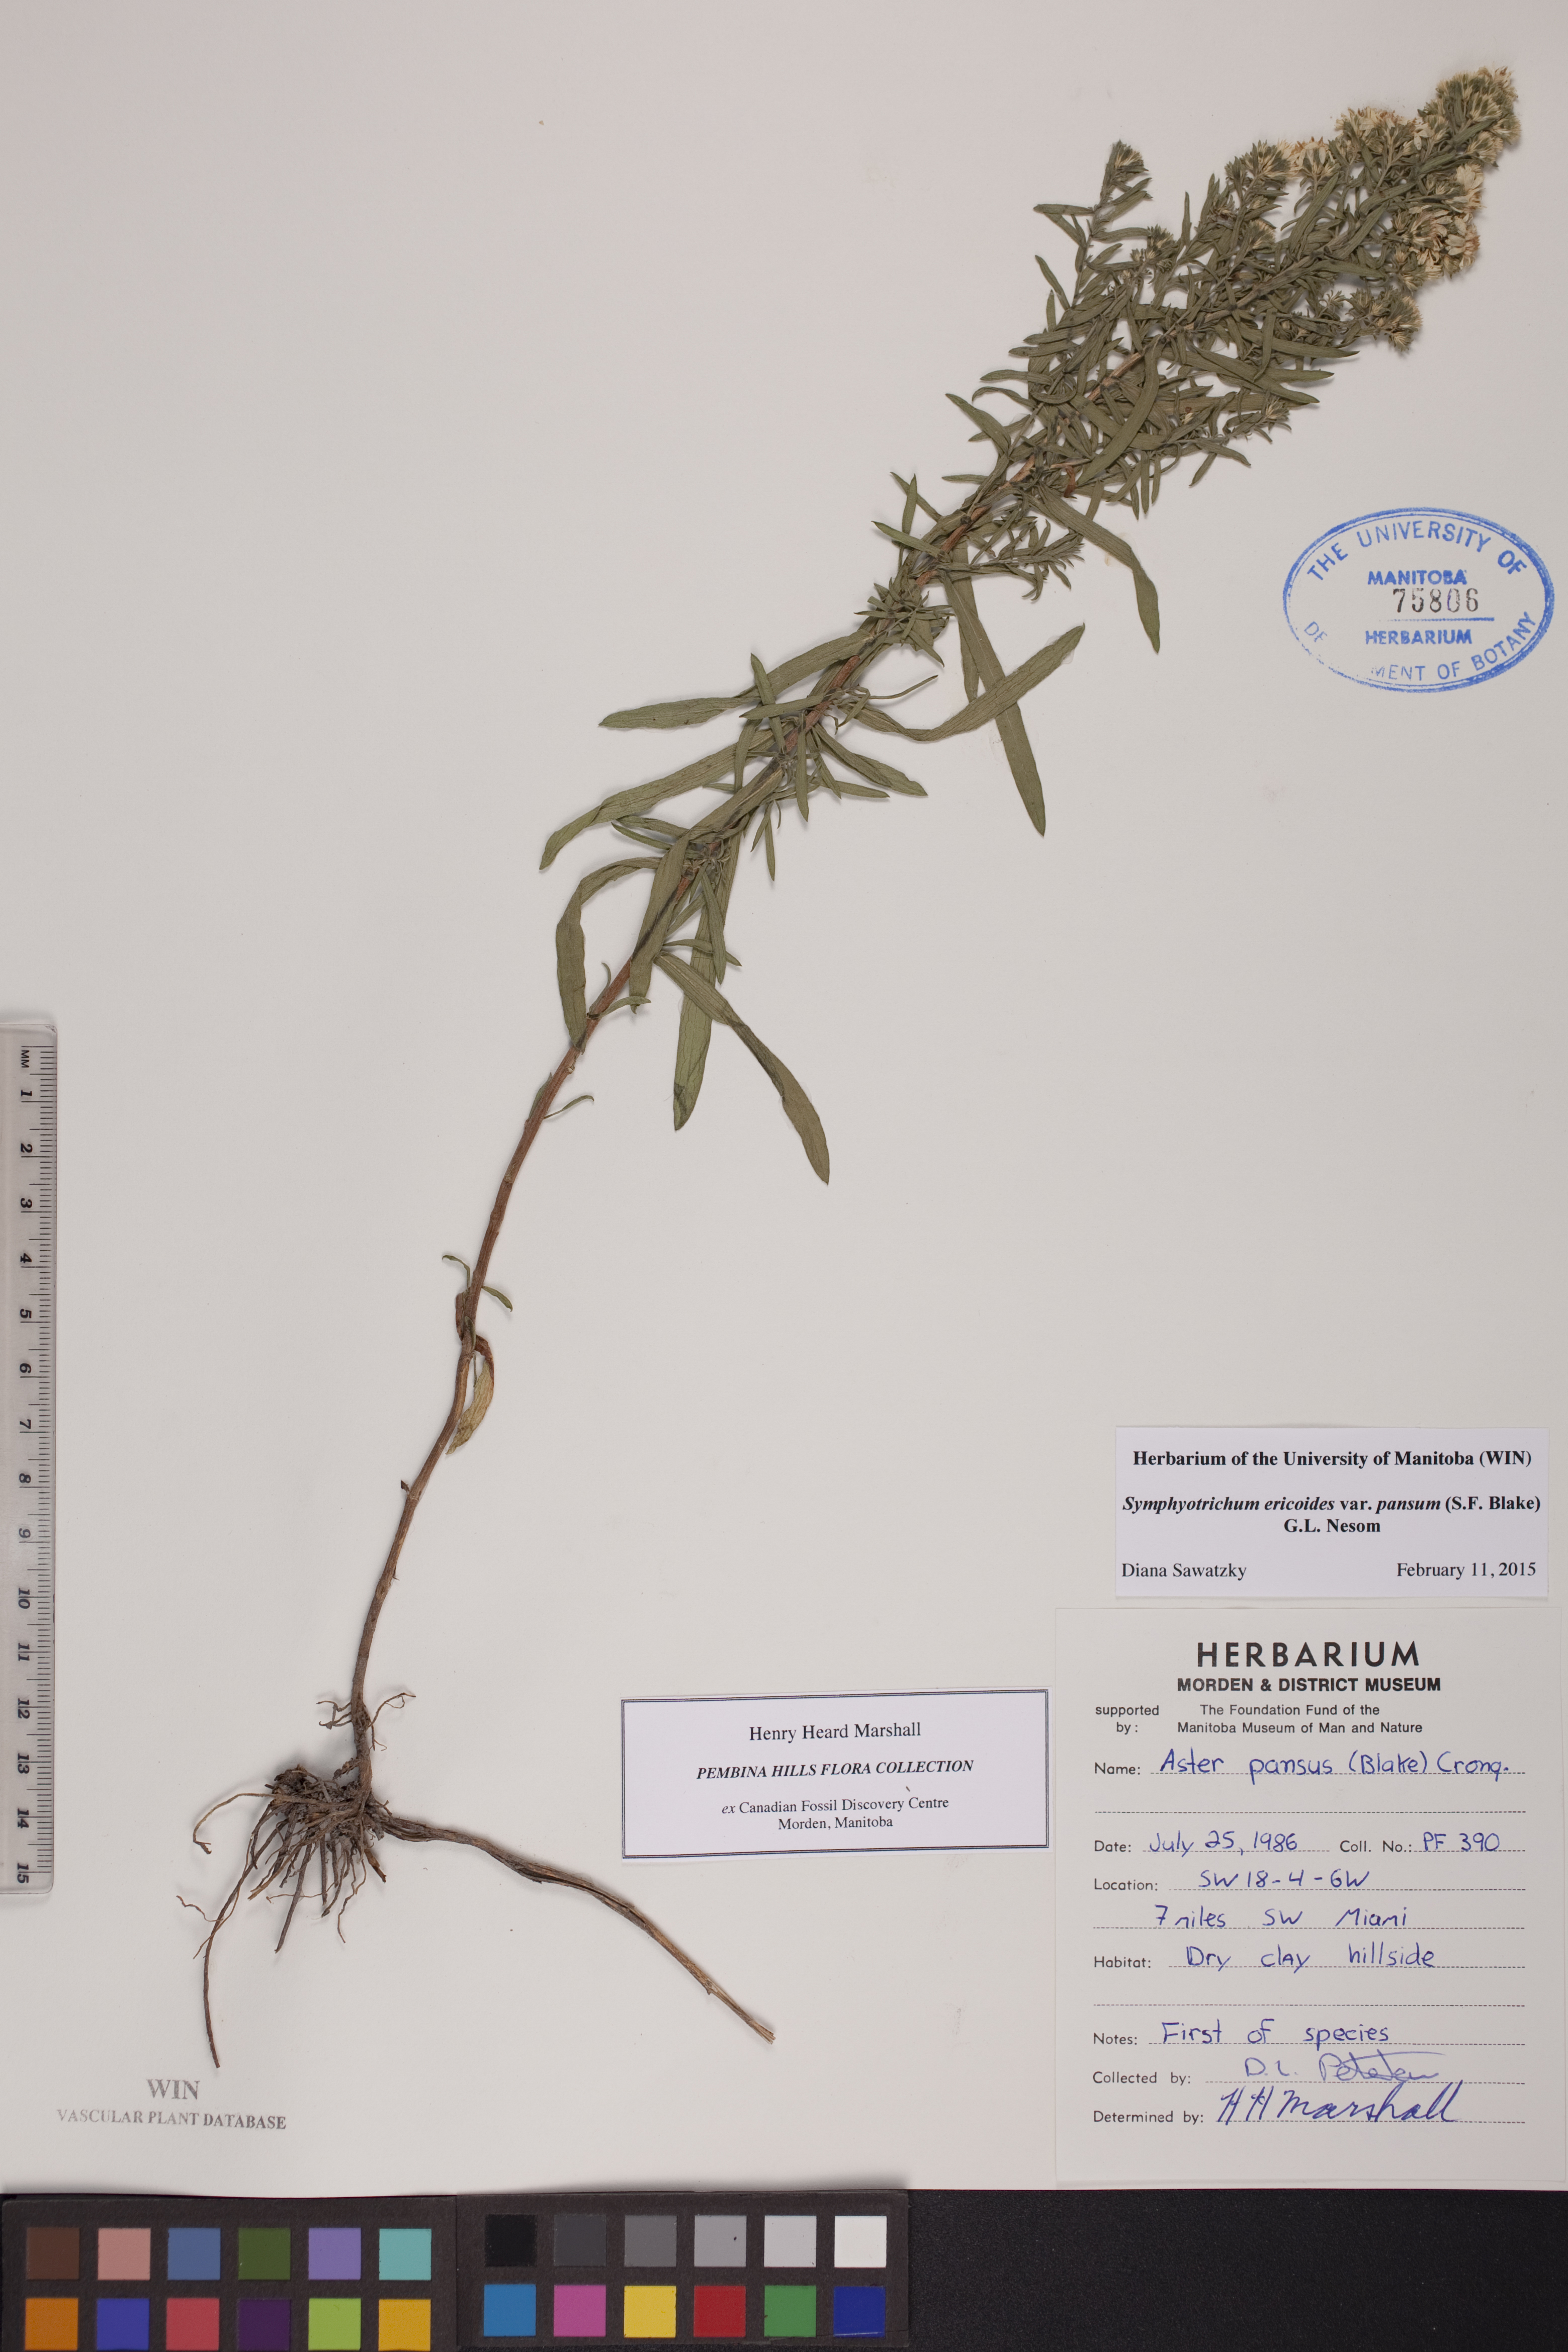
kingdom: Plantae
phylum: Tracheophyta
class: Magnoliopsida
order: Asterales
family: Asteraceae
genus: Symphyotrichum
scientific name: Symphyotrichum ericoides
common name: Heath aster
